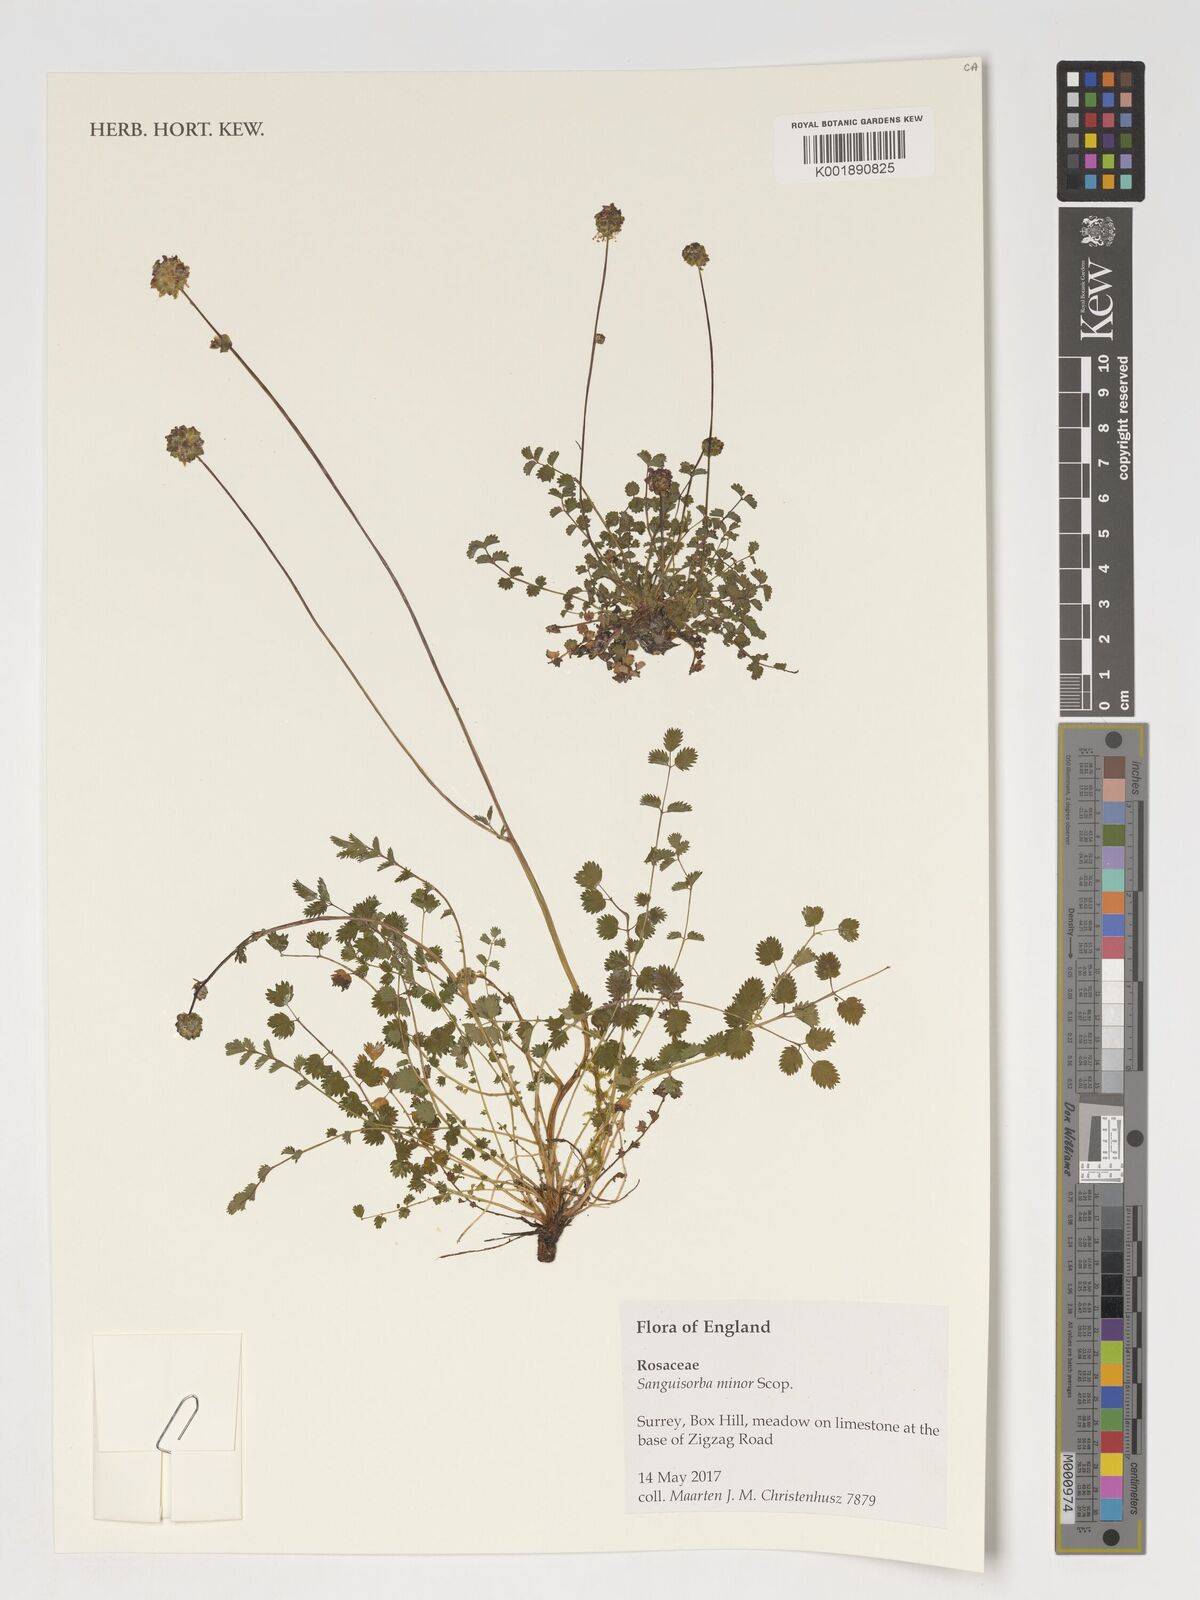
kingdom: Plantae
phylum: Tracheophyta
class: Magnoliopsida
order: Rosales
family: Rosaceae
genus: Poterium
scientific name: Poterium sanguisorba
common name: Salad burnet
